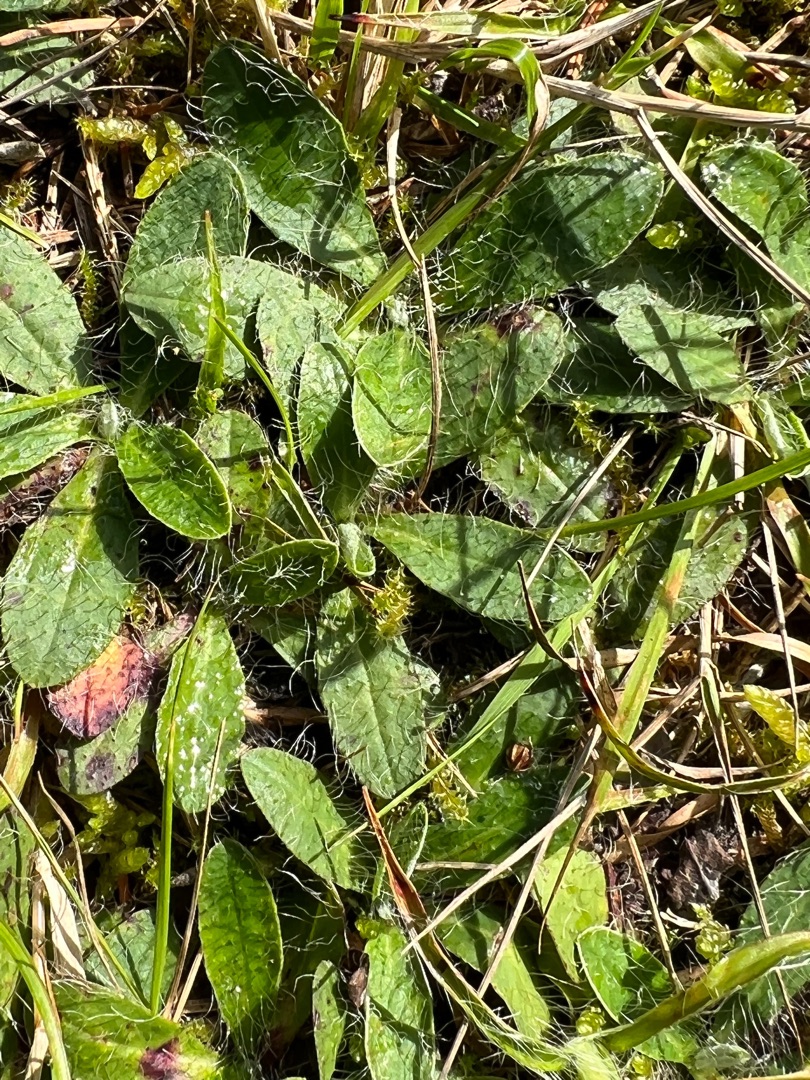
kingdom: Plantae
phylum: Tracheophyta
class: Magnoliopsida
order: Asterales
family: Asteraceae
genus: Pilosella
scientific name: Pilosella officinarum
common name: Håret høgeurt
